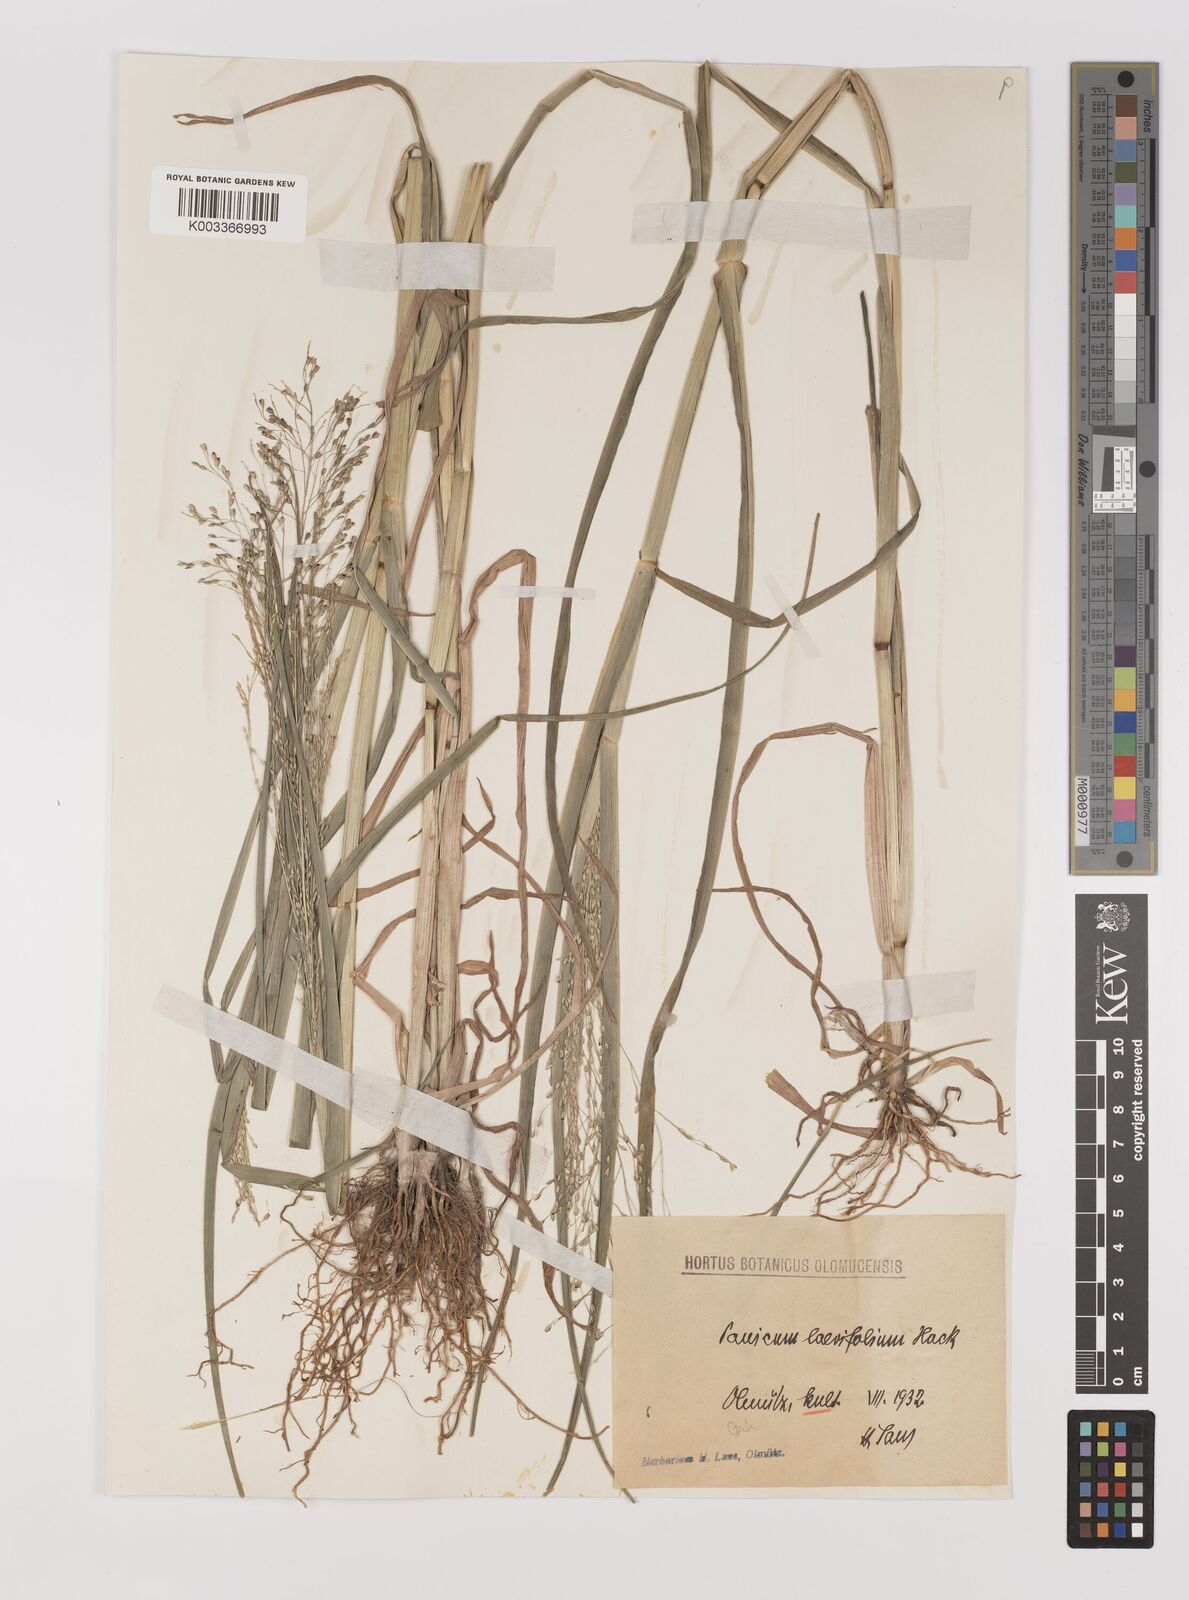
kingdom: Plantae
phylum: Tracheophyta
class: Liliopsida
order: Poales
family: Poaceae
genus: Panicum
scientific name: Panicum schinzii
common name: Sweet grass
